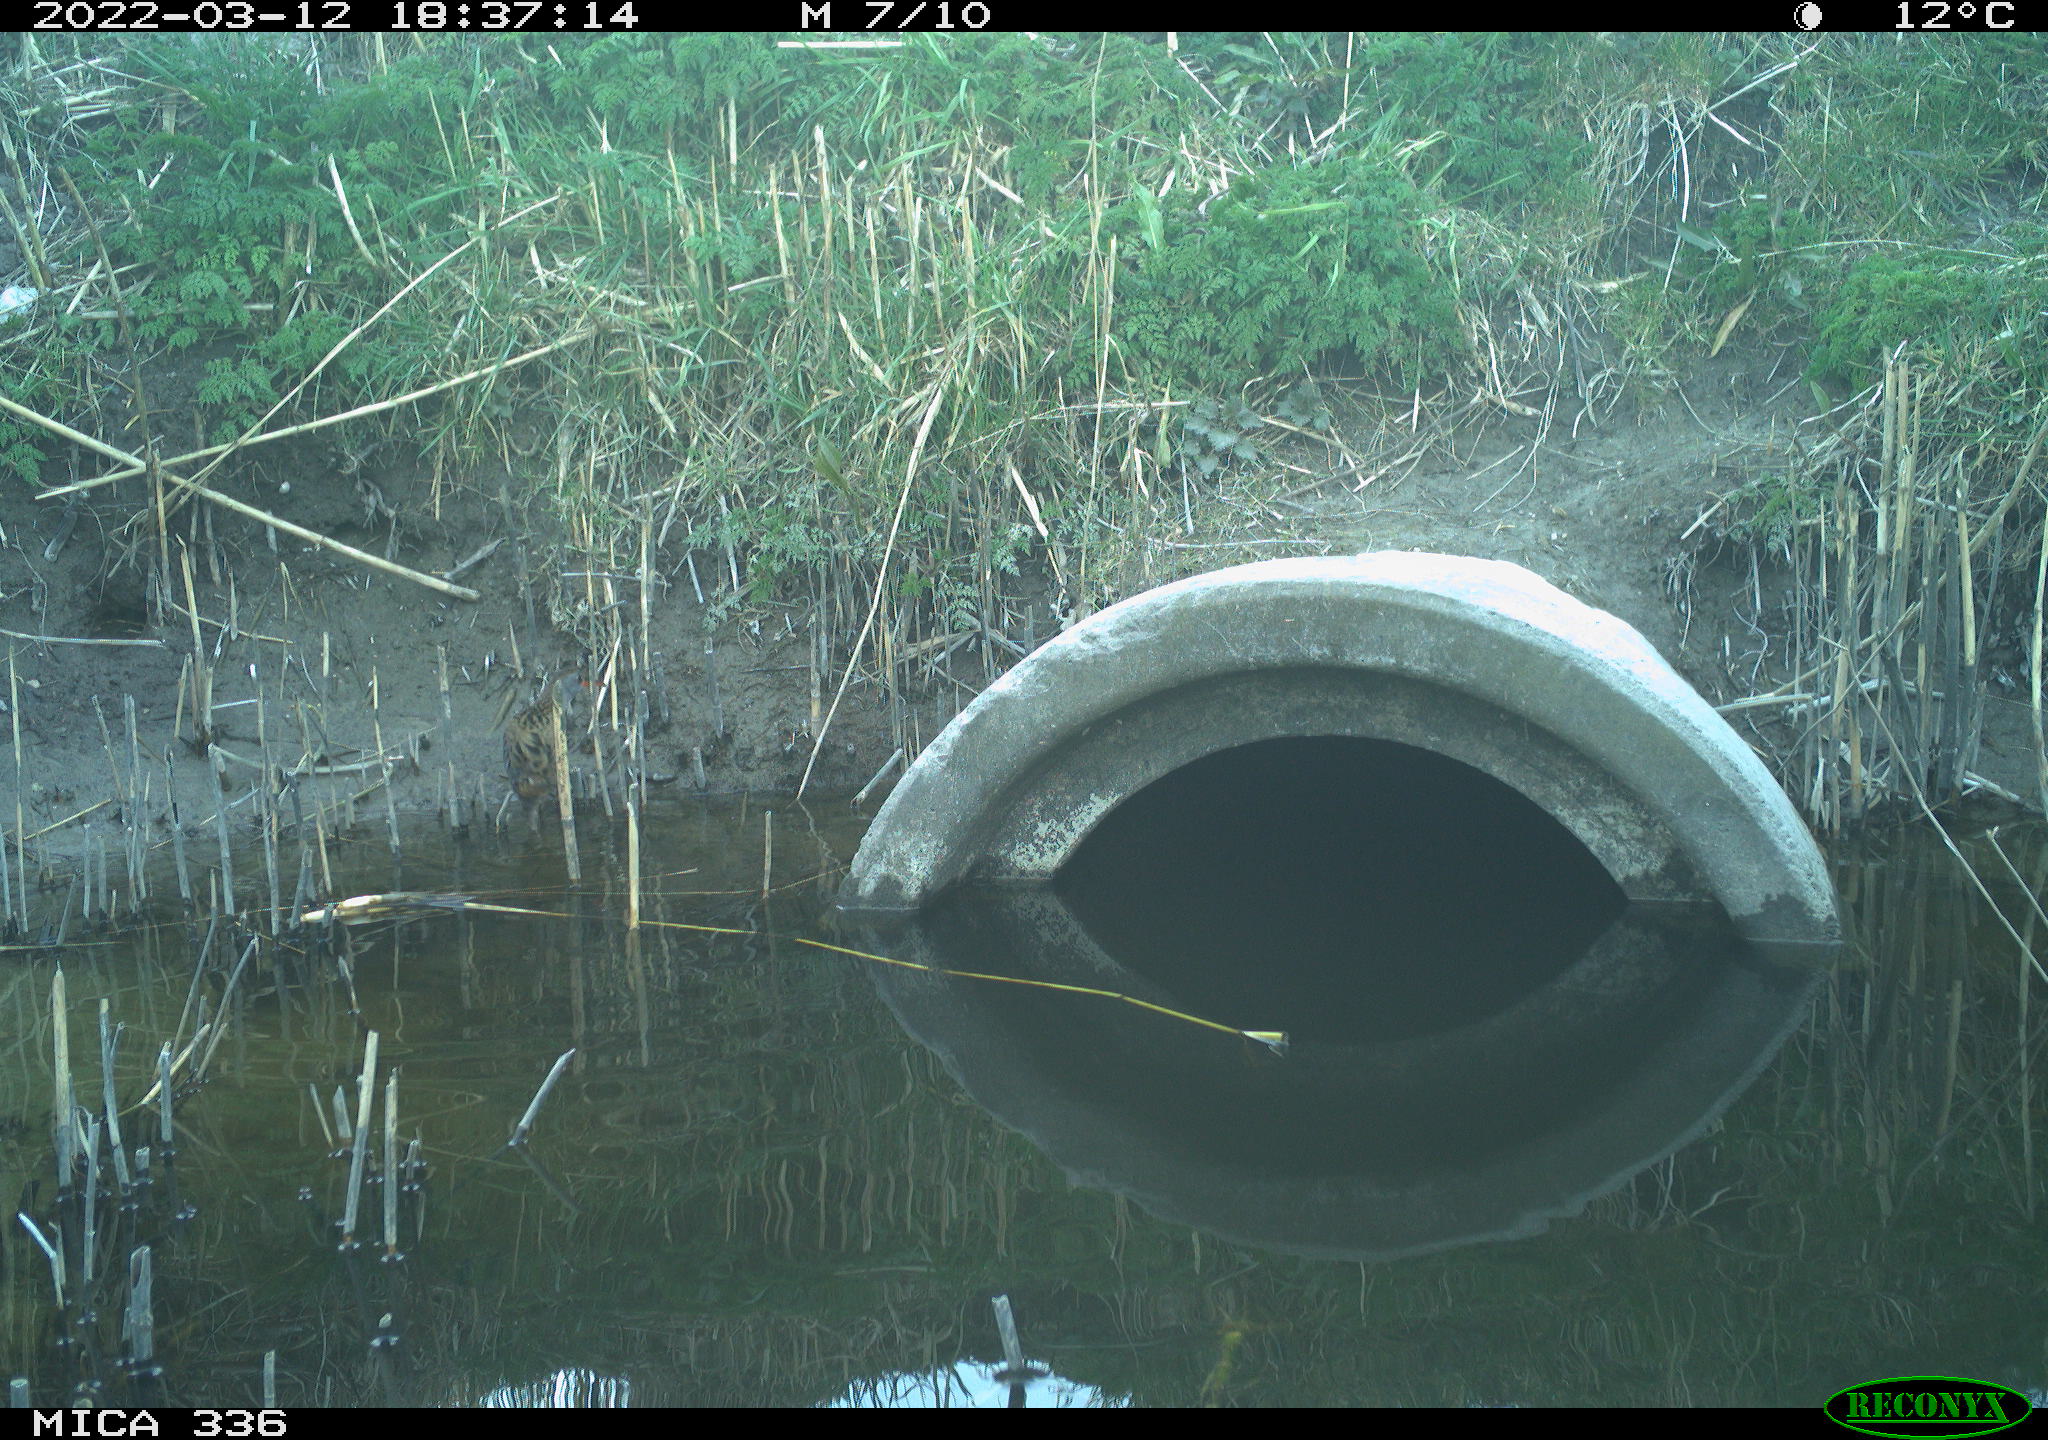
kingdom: Animalia
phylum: Chordata
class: Aves
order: Gruiformes
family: Rallidae
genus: Rallus
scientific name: Rallus aquaticus
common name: Water rail
